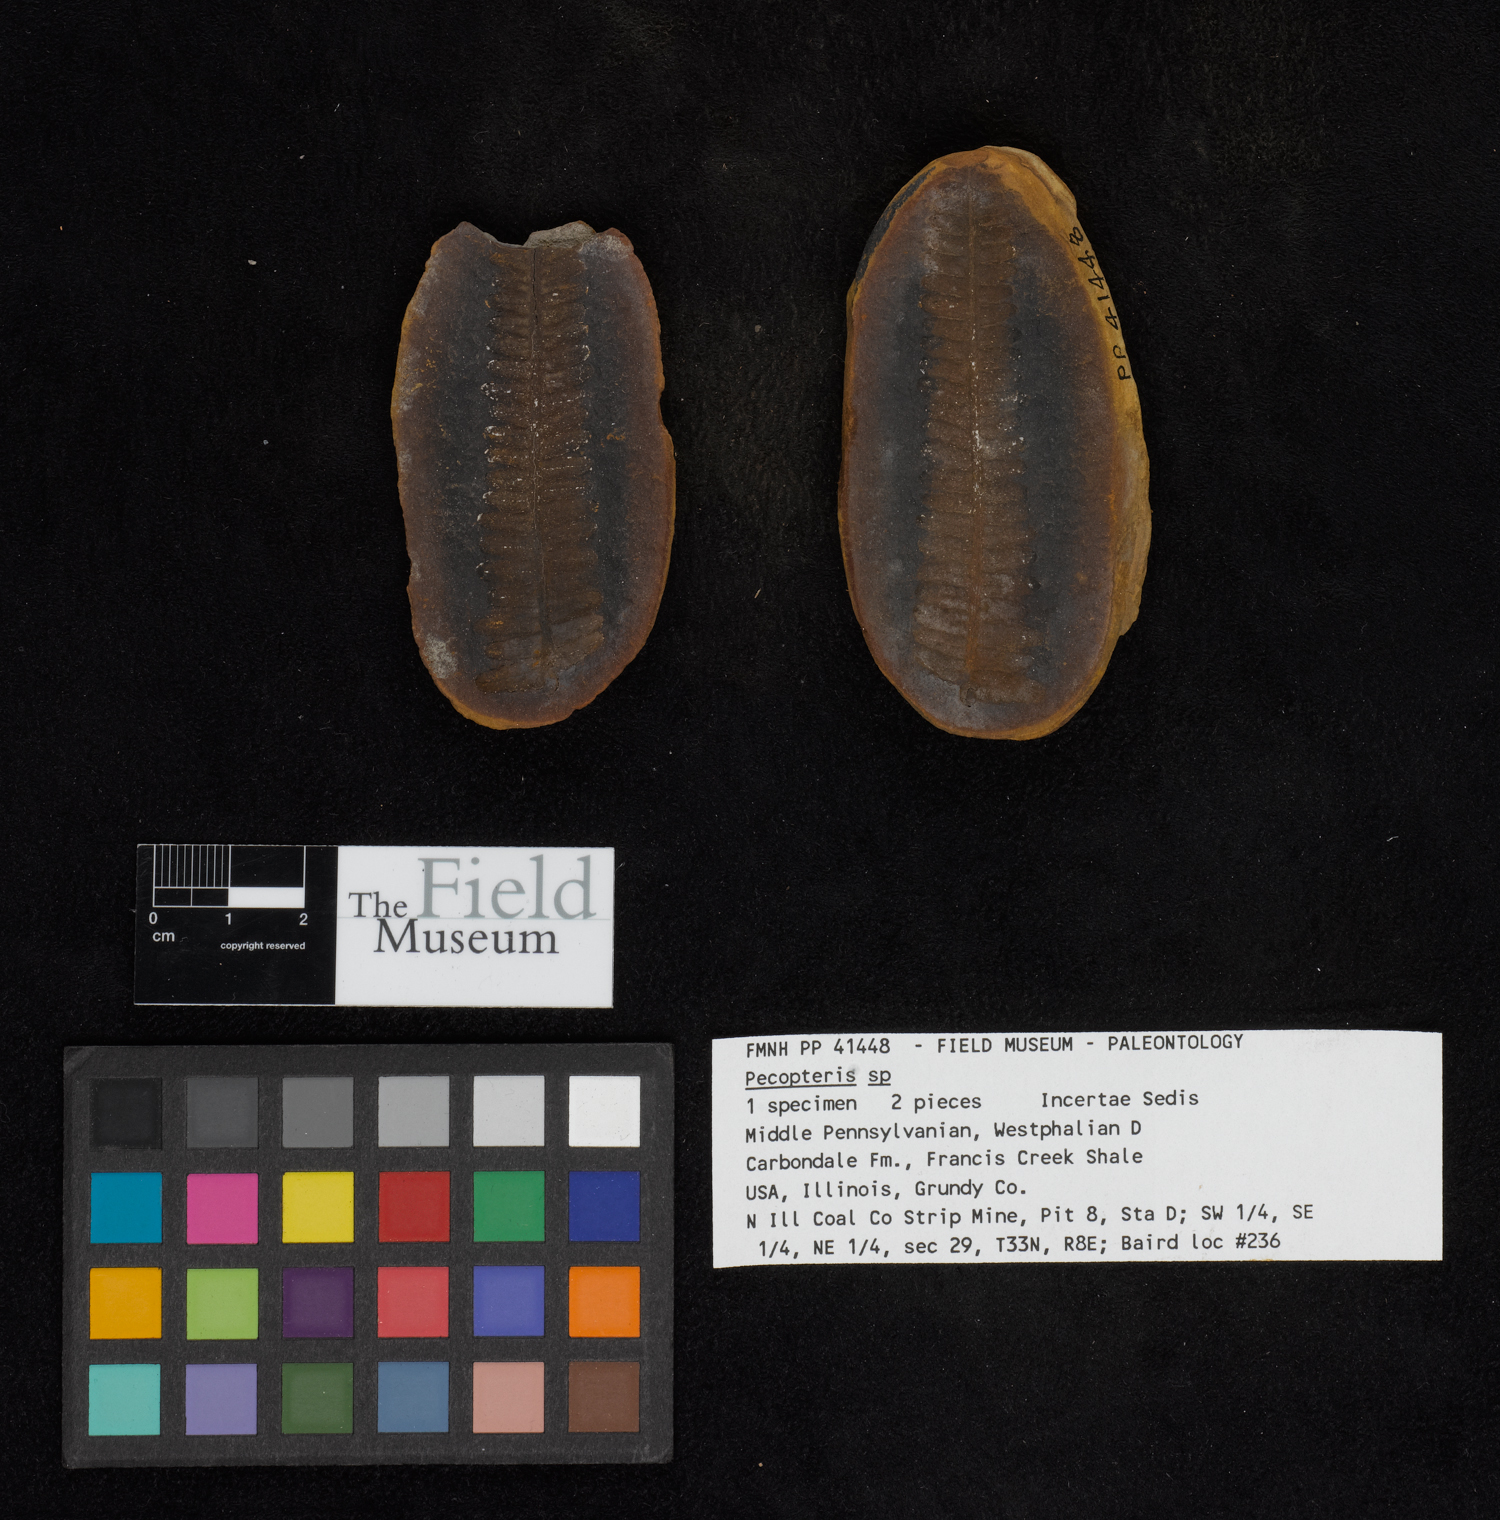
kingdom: Plantae
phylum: Tracheophyta
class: Polypodiopsida
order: Marattiales
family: Asterothecaceae
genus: Pecopteris
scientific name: Pecopteris
